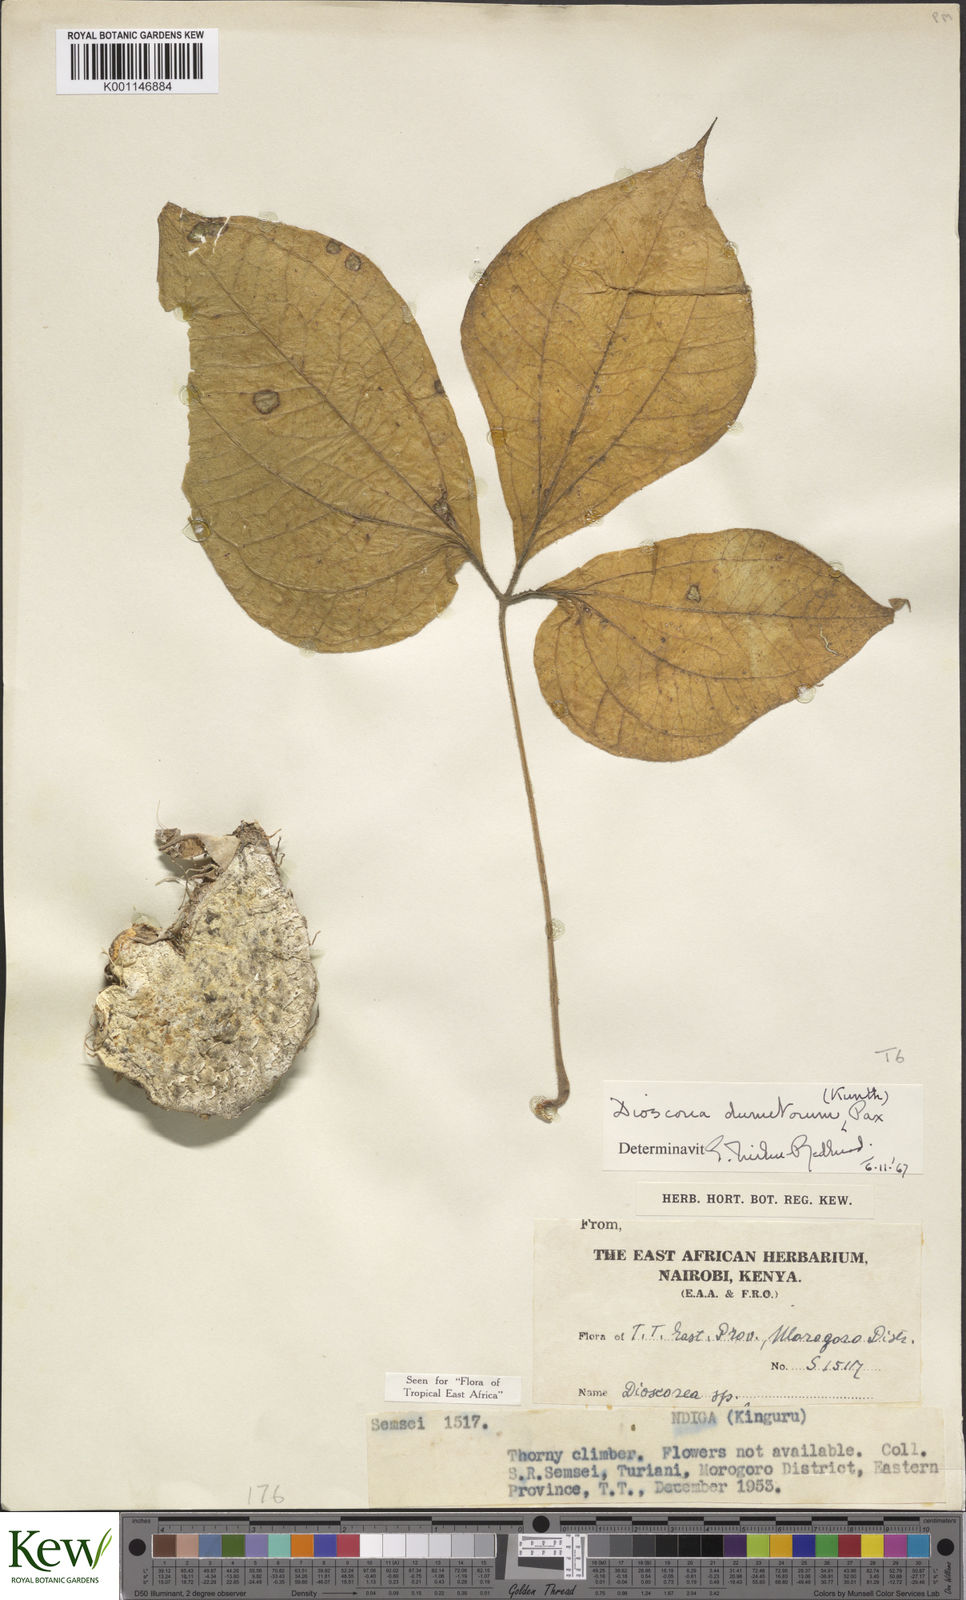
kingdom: Plantae
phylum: Tracheophyta
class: Liliopsida
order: Dioscoreales
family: Dioscoreaceae
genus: Dioscorea
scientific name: Dioscorea dumetorum
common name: African bitter yam
